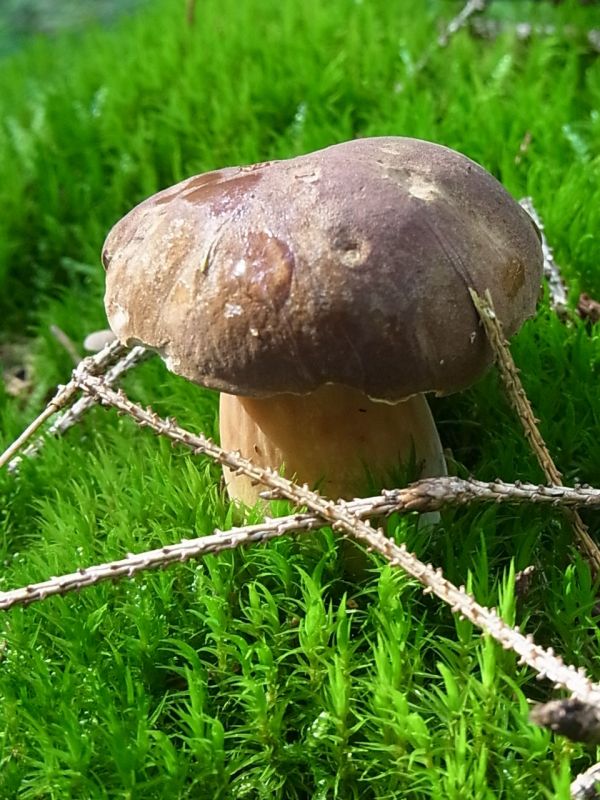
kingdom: Fungi
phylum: Basidiomycota
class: Agaricomycetes
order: Boletales
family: Boletaceae
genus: Imleria
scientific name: Imleria badia
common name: brunstokket rørhat
